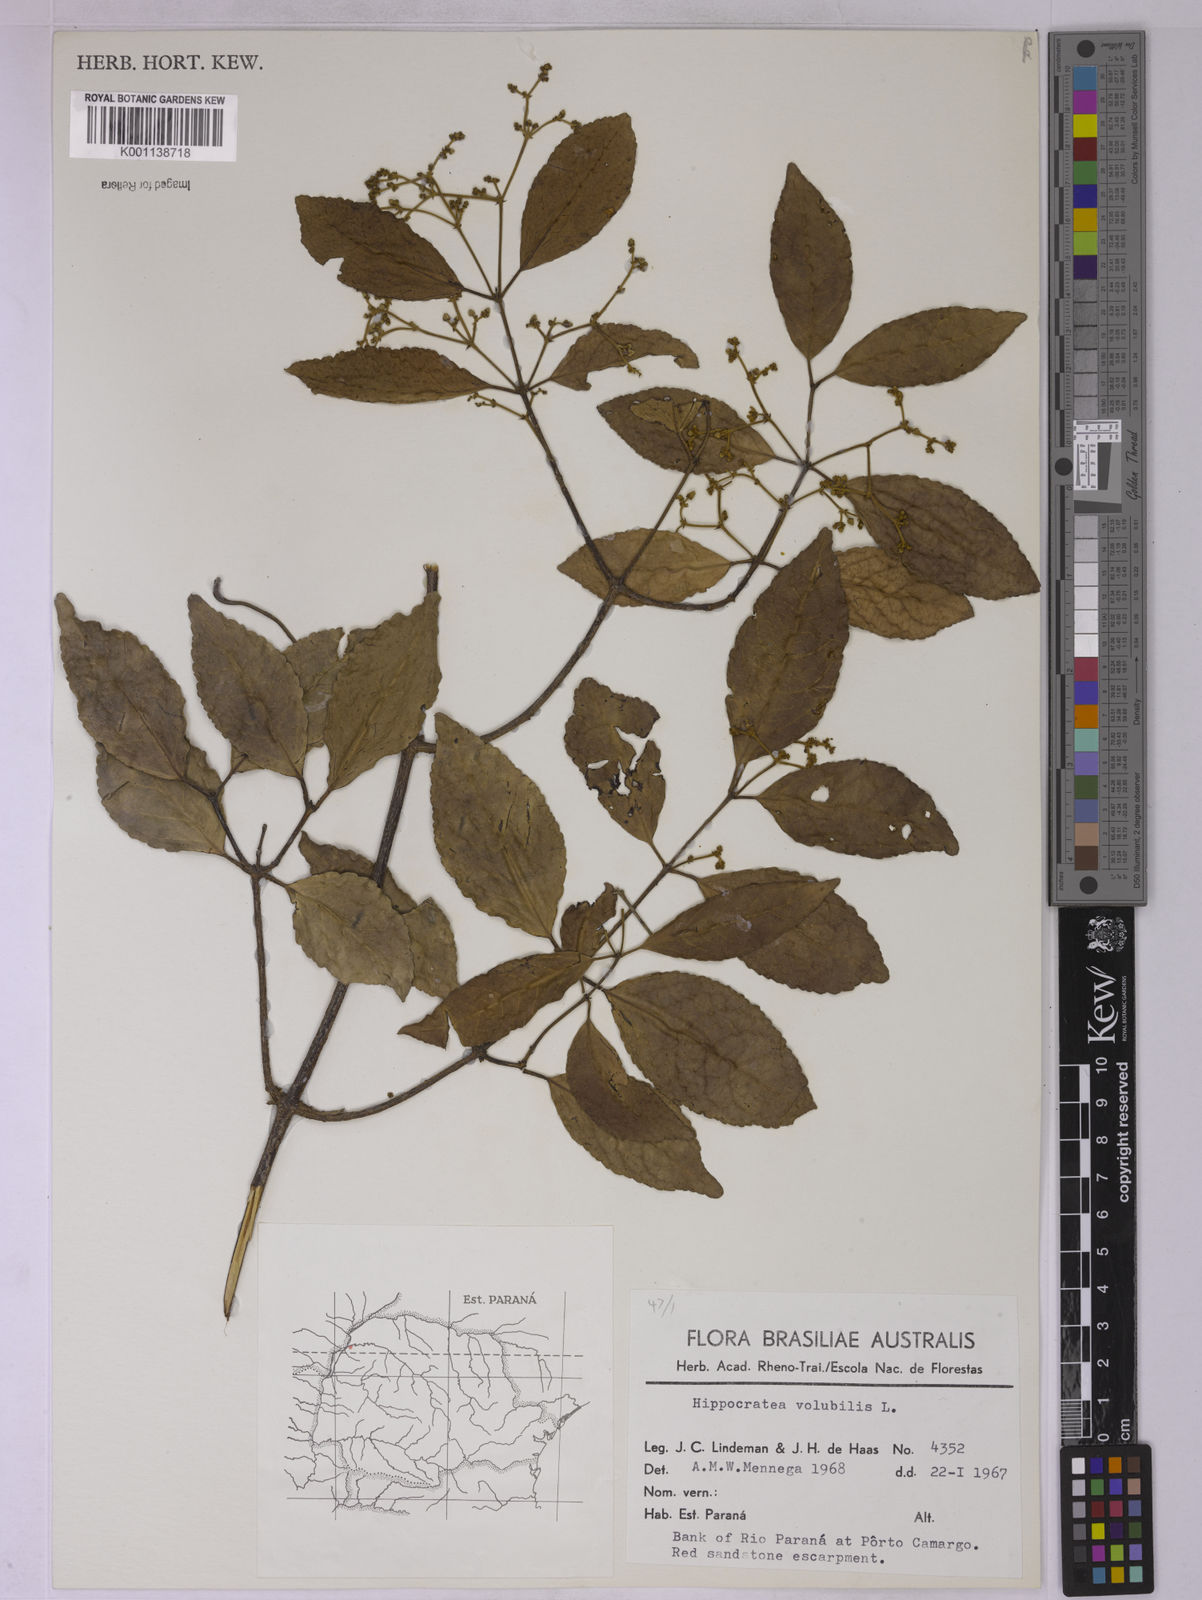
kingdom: Plantae
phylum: Tracheophyta
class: Magnoliopsida
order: Celastrales
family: Celastraceae
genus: Hippocratea
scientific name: Hippocratea volubilis
